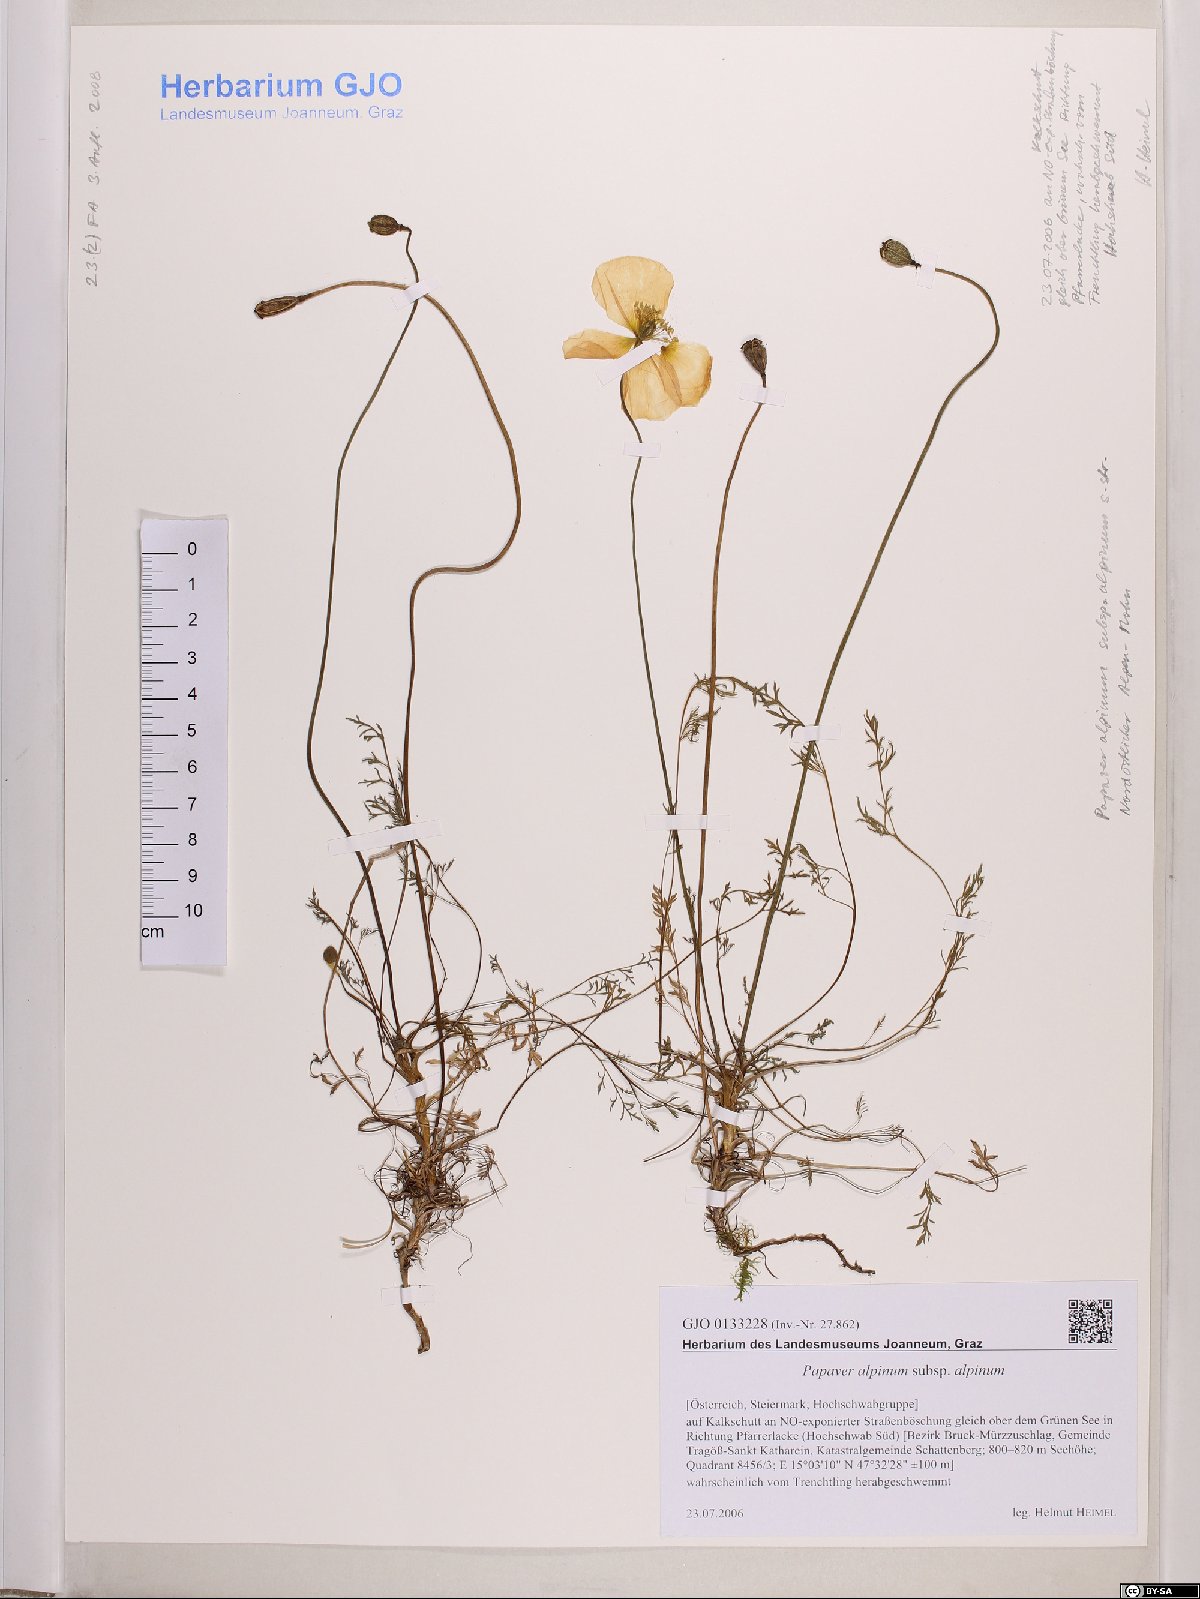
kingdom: Plantae
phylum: Tracheophyta
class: Magnoliopsida
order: Ranunculales
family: Papaveraceae
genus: Papaver
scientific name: Papaver alpinum
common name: Austrian poppy
